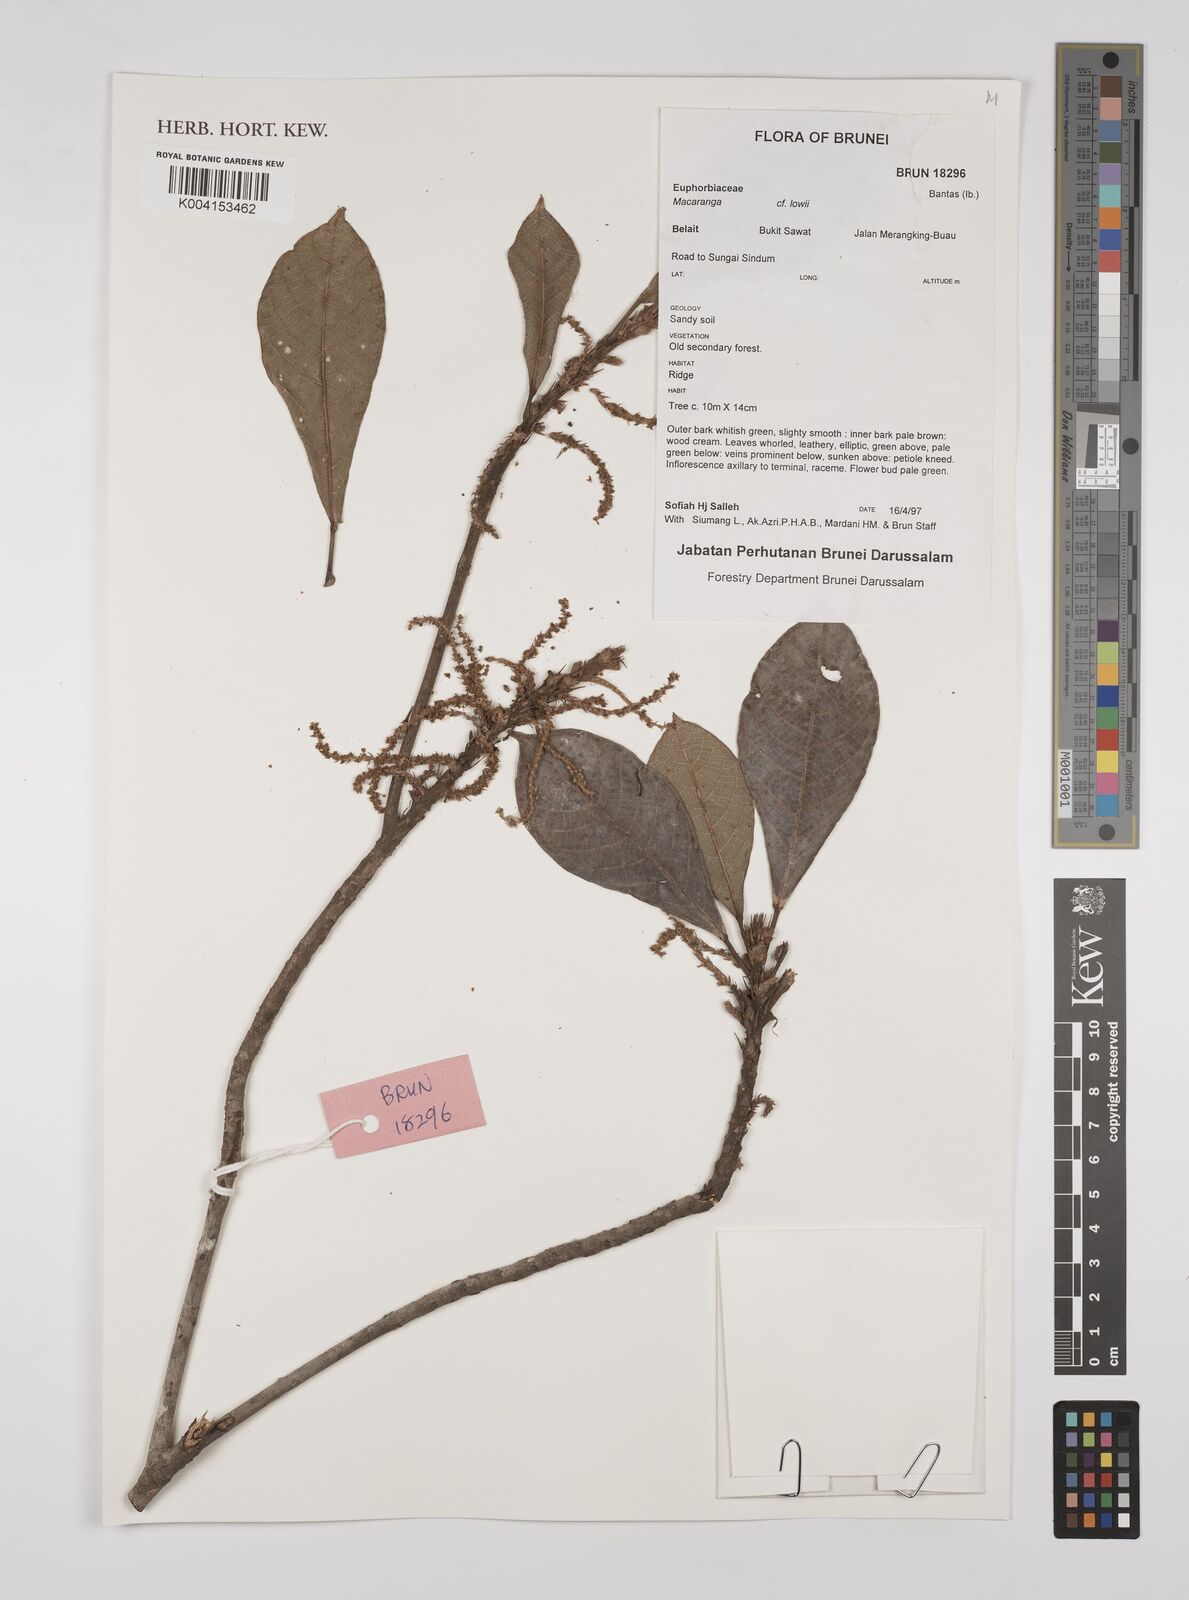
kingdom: Plantae
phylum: Tracheophyta
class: Magnoliopsida
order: Malpighiales
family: Euphorbiaceae
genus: Macaranga
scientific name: Macaranga lowii
